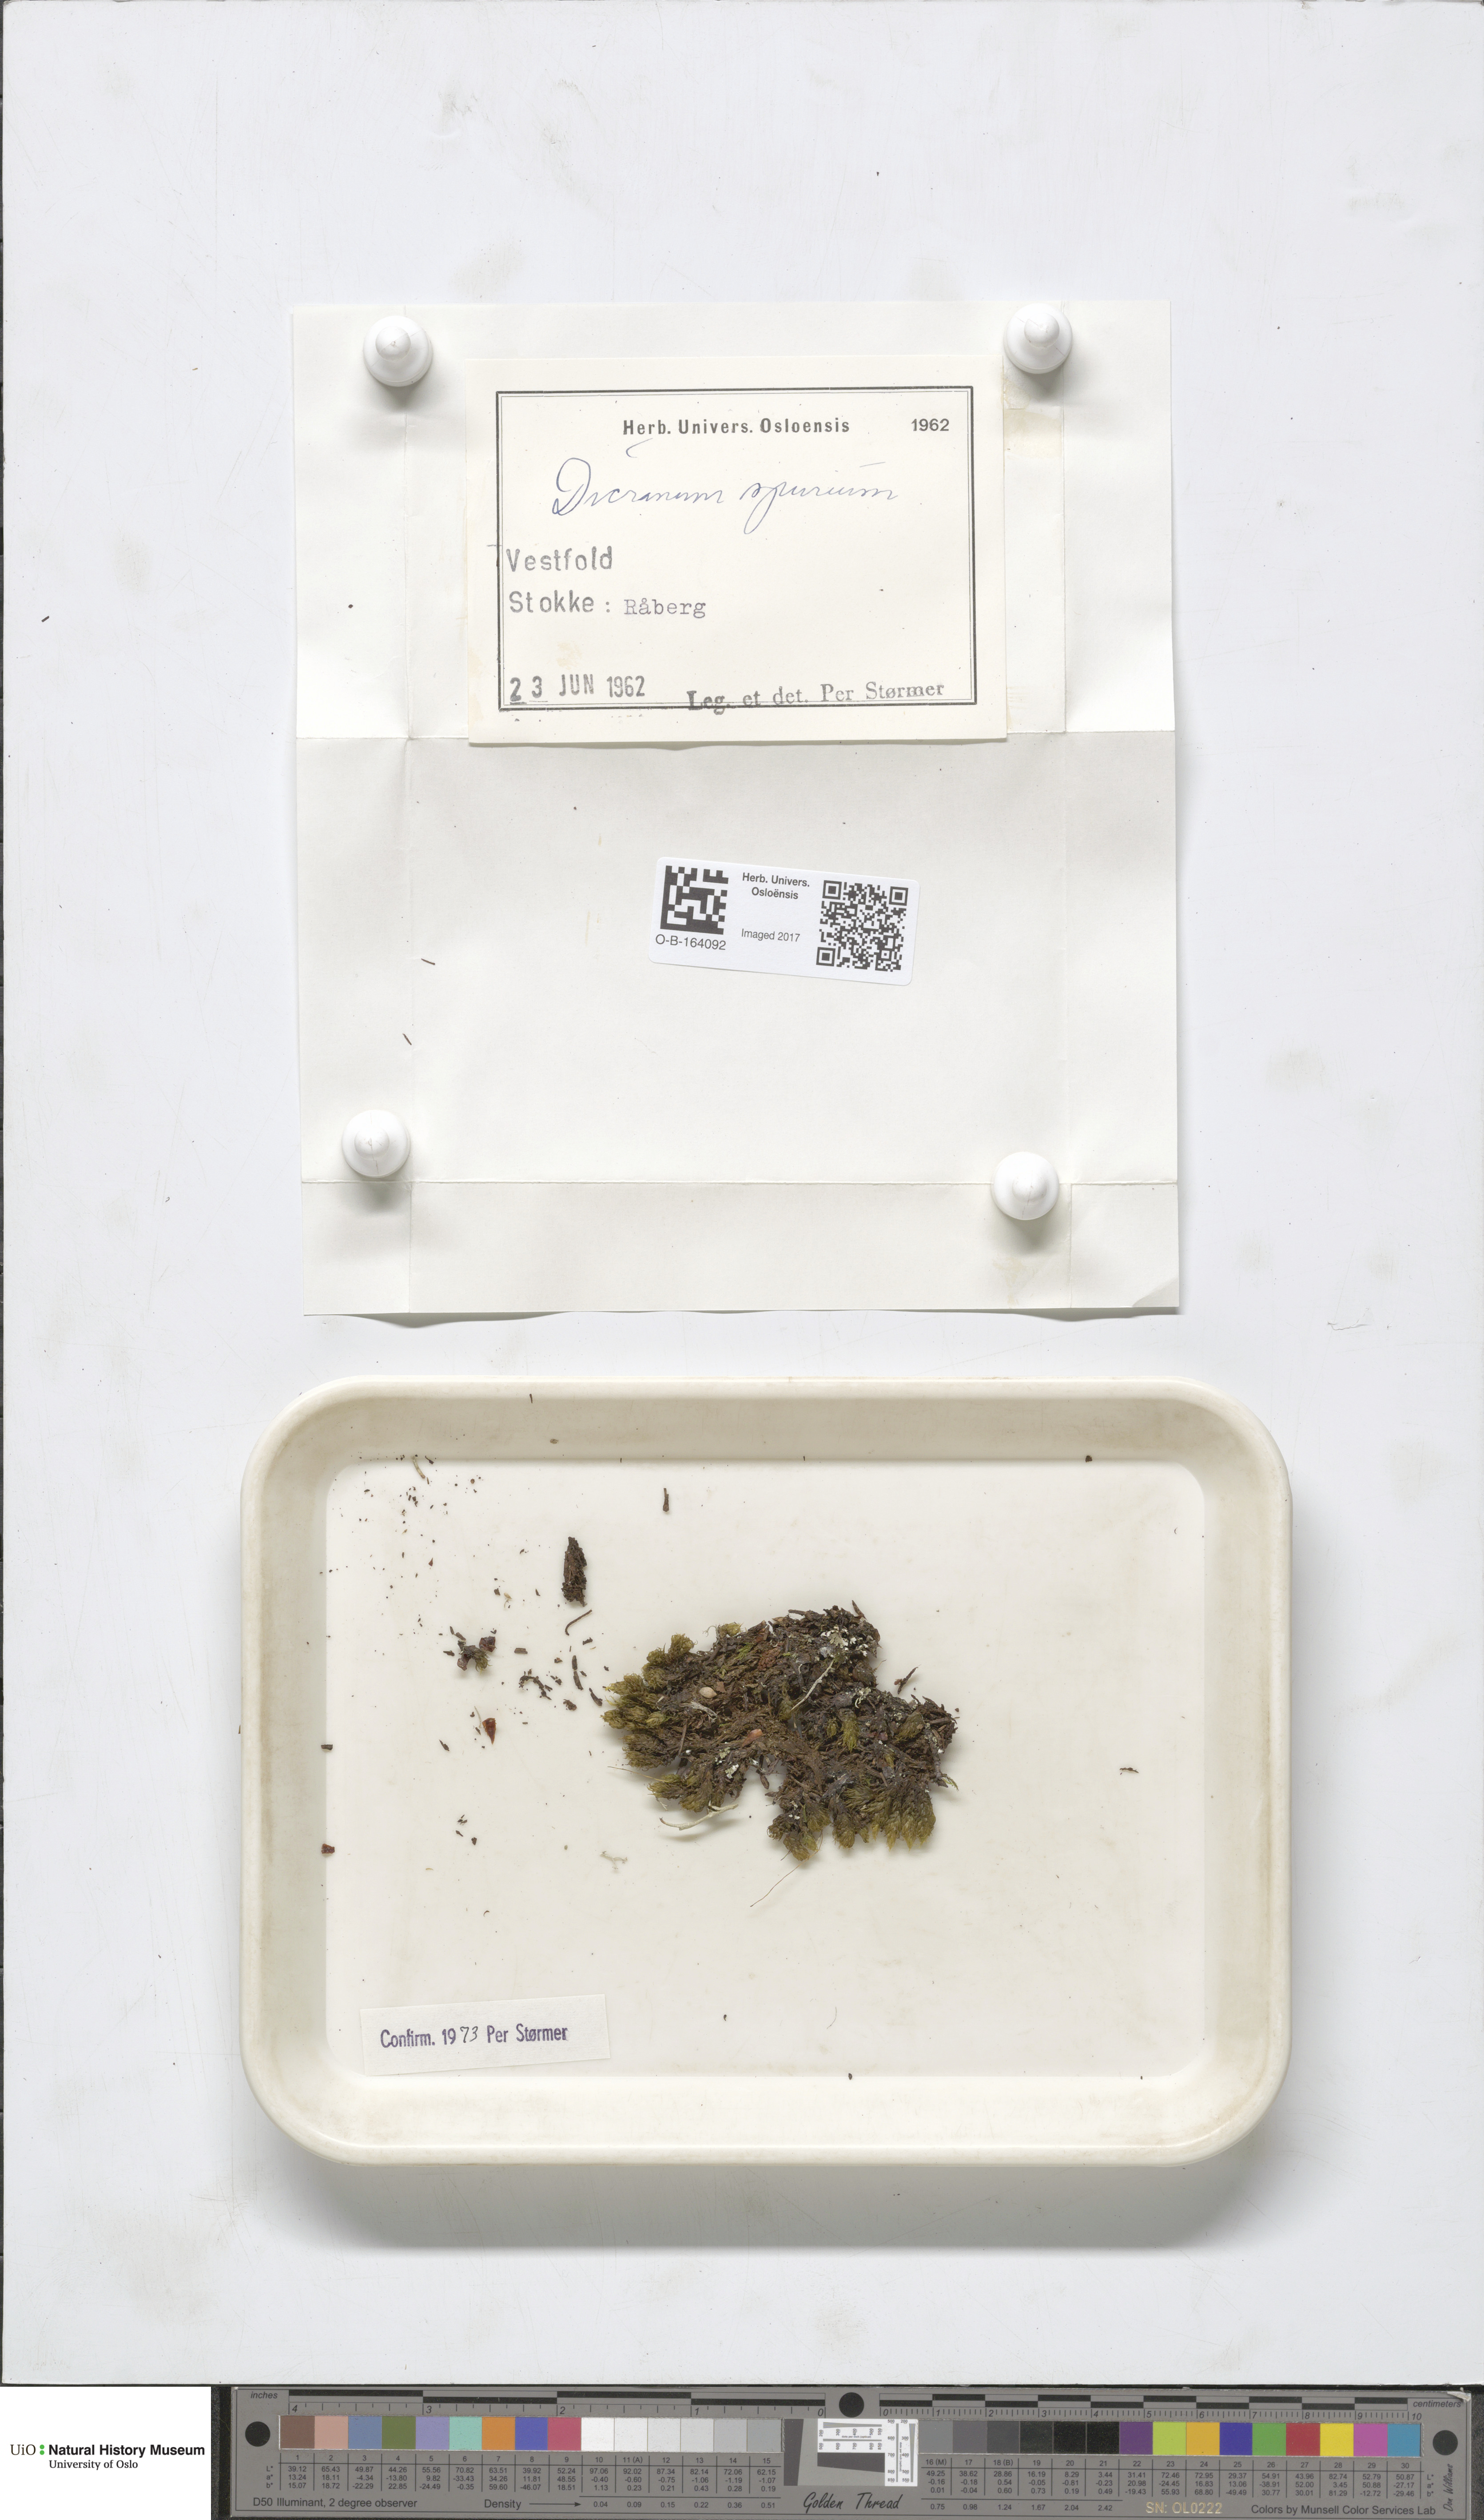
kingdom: Plantae
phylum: Bryophyta
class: Bryopsida
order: Dicranales
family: Dicranaceae
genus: Dicranum
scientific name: Dicranum spurium
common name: Spurred broom moss
